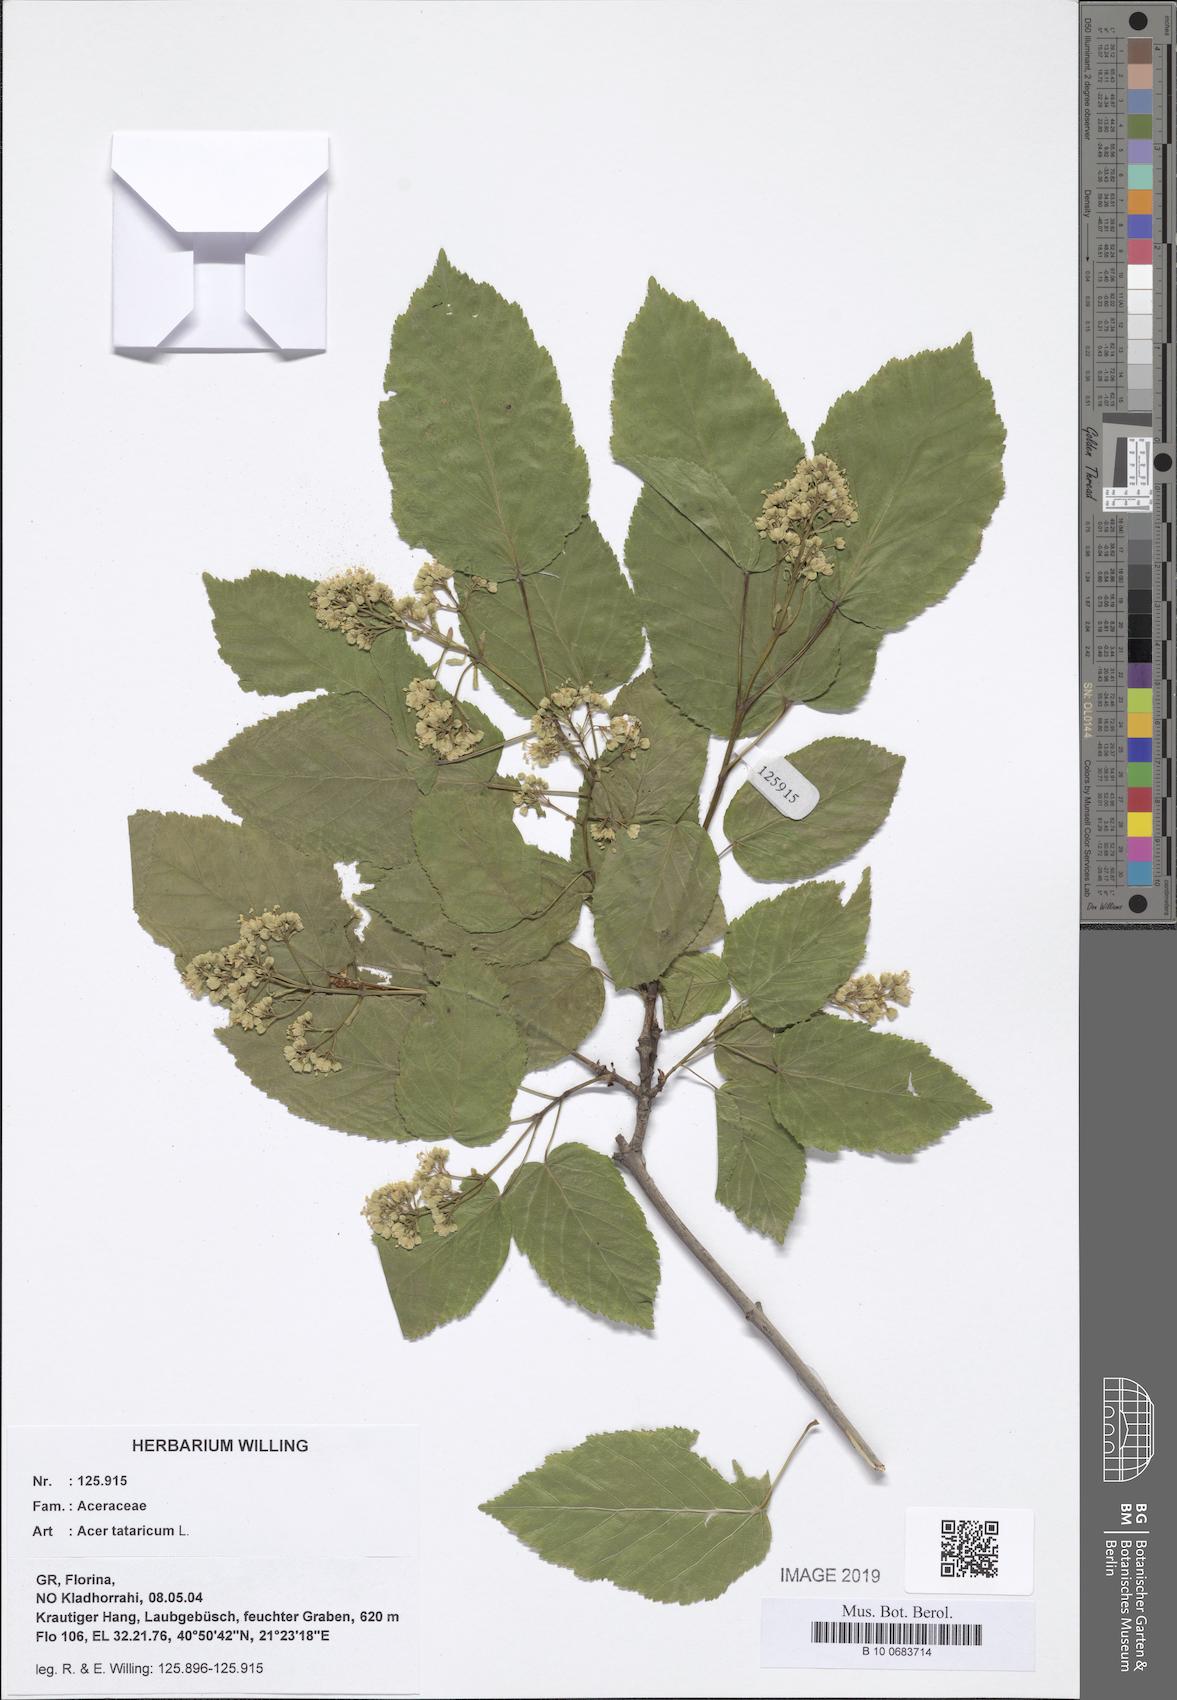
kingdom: Plantae
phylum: Tracheophyta
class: Magnoliopsida
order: Sapindales
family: Sapindaceae
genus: Acer
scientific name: Acer tataricum
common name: Tartar maple
